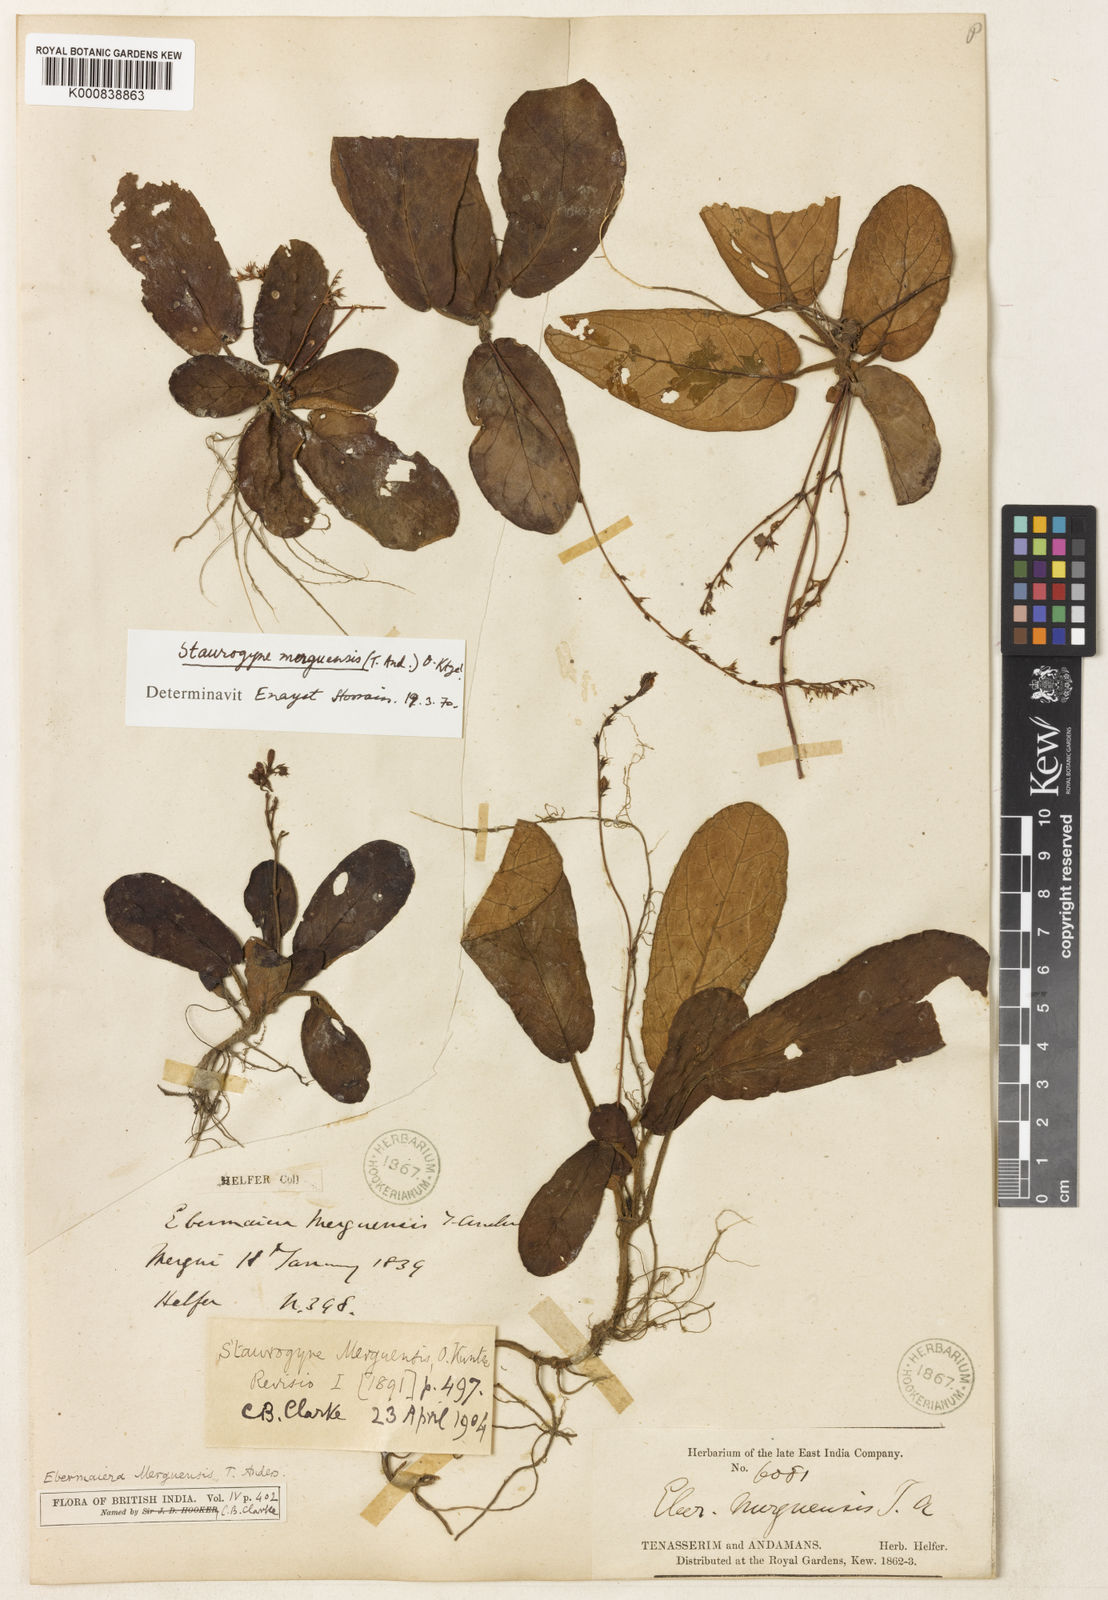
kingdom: Plantae
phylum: Tracheophyta
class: Magnoliopsida
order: Lamiales
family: Acanthaceae
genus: Staurogyne
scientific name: Staurogyne merguensis
